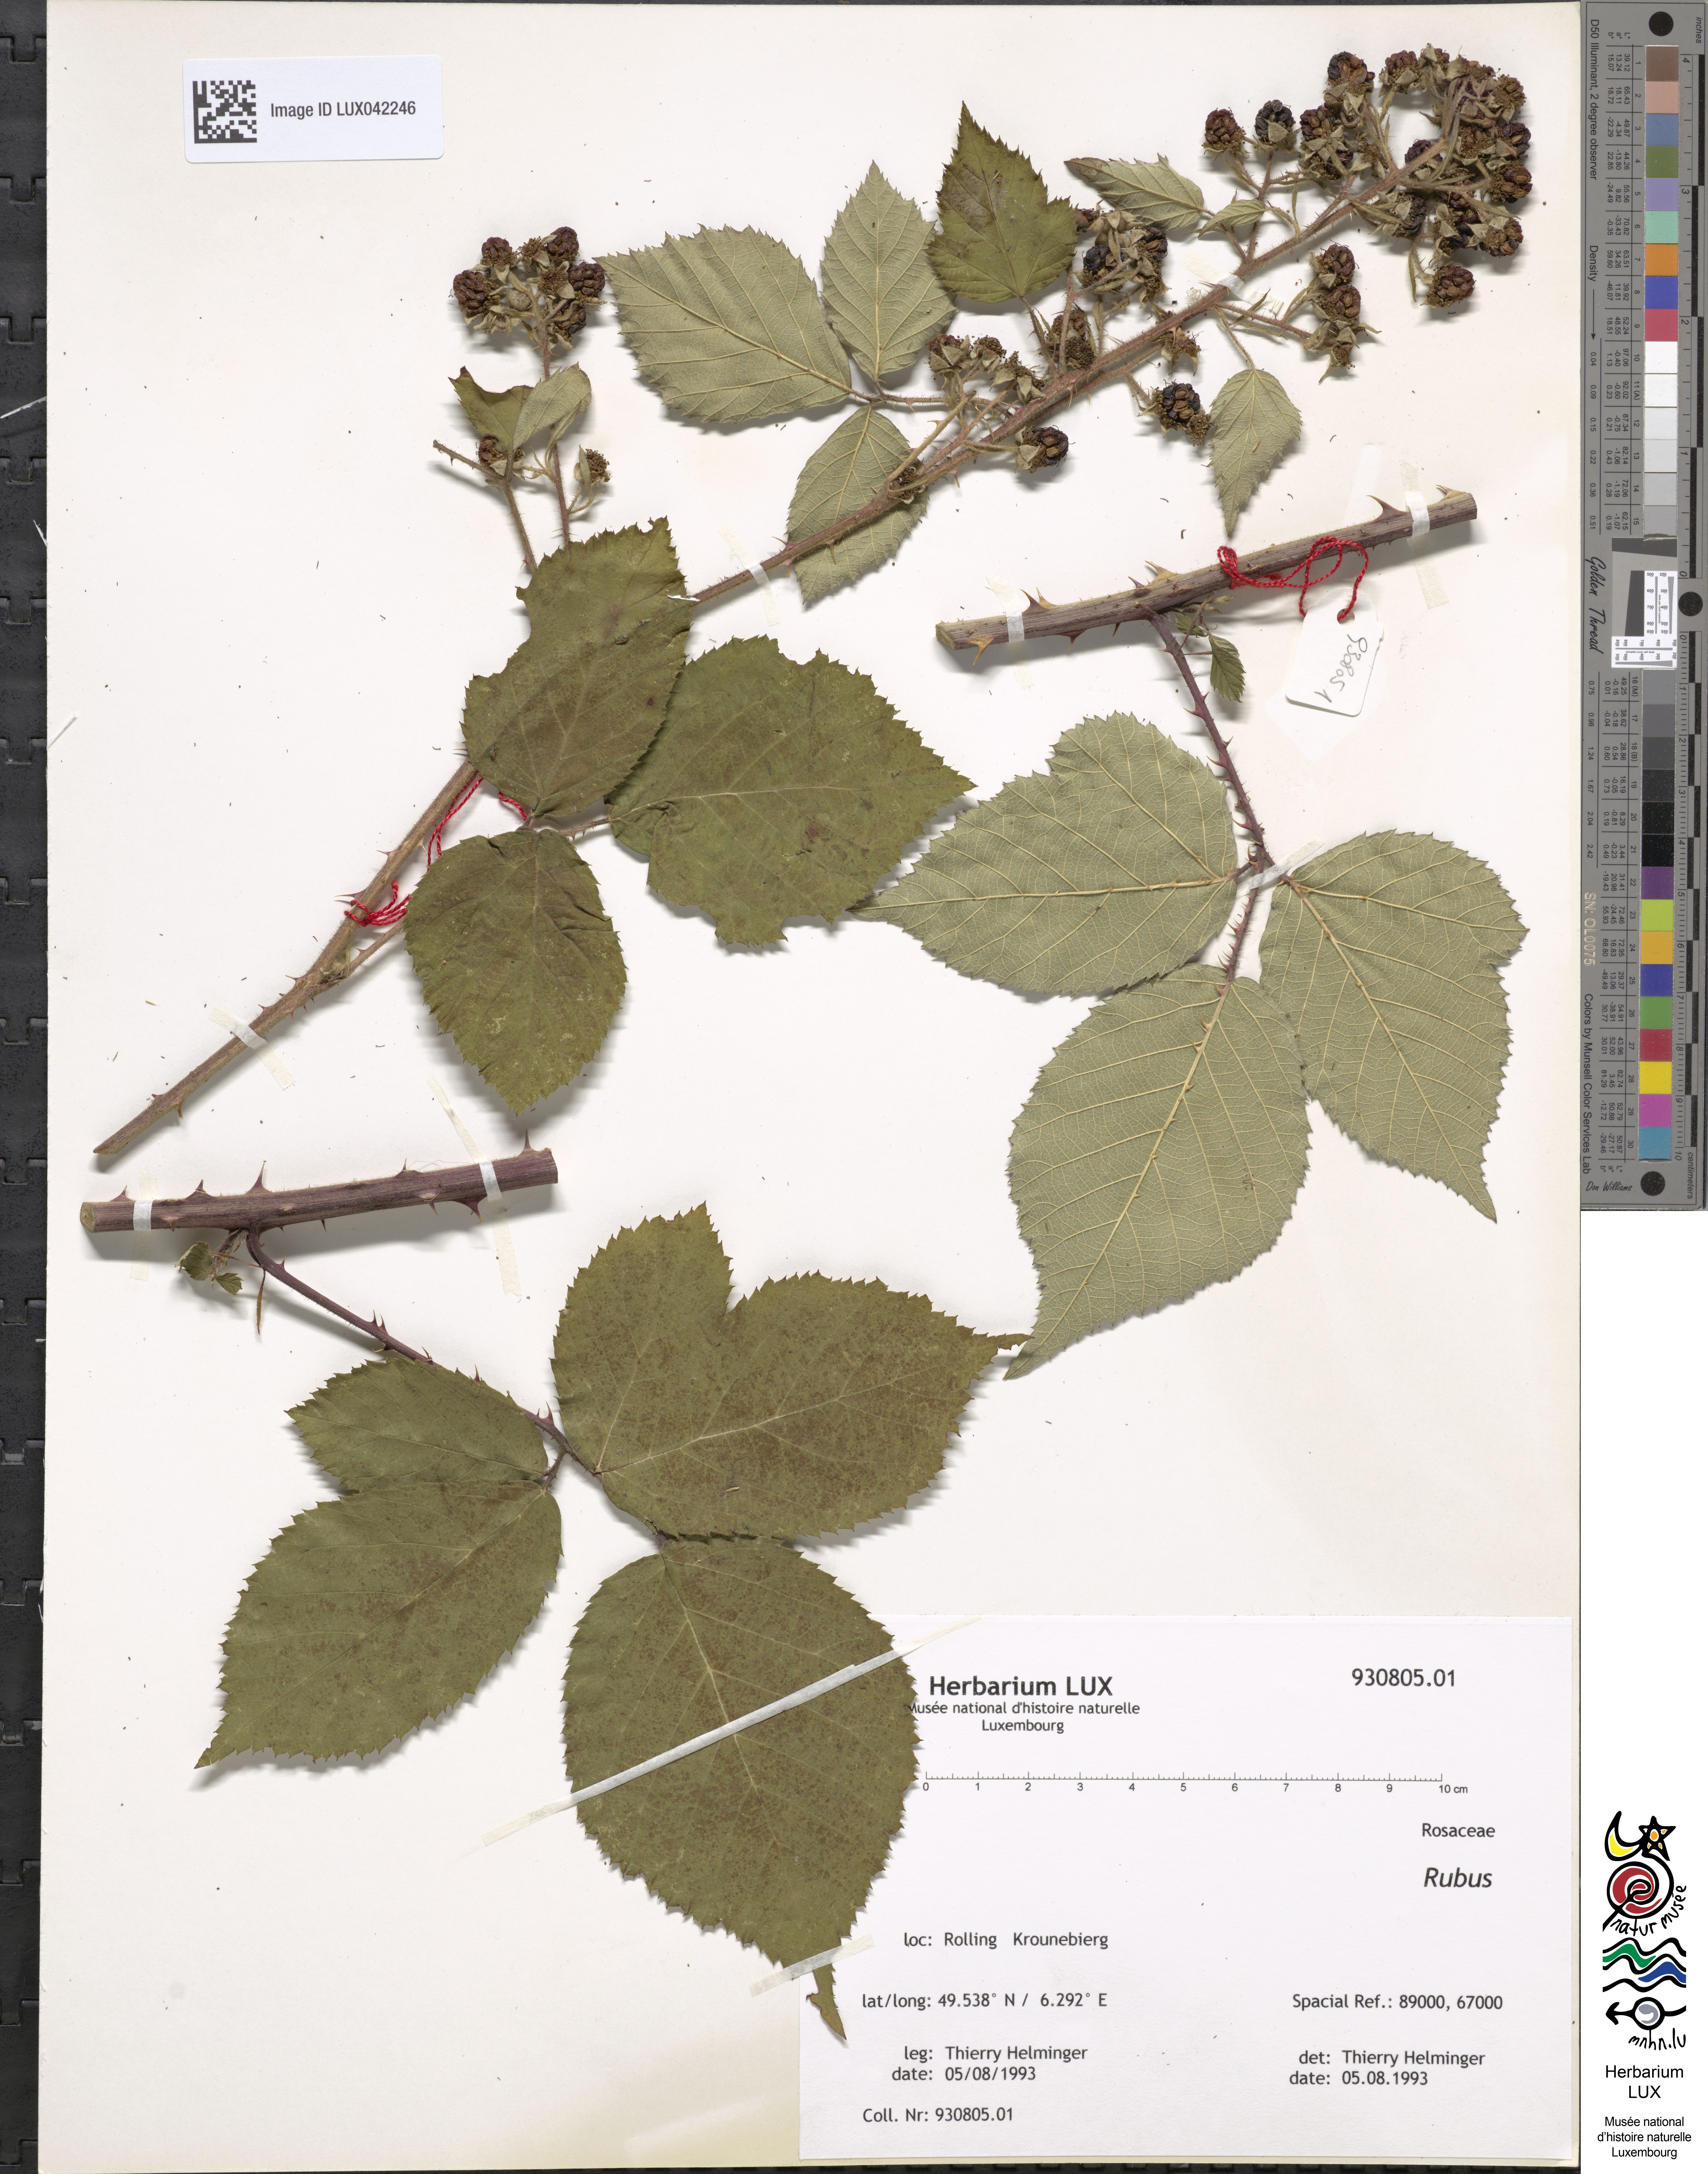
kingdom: Plantae
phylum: Tracheophyta
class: Magnoliopsida
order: Rosales
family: Rosaceae
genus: Rubus
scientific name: Rubus
